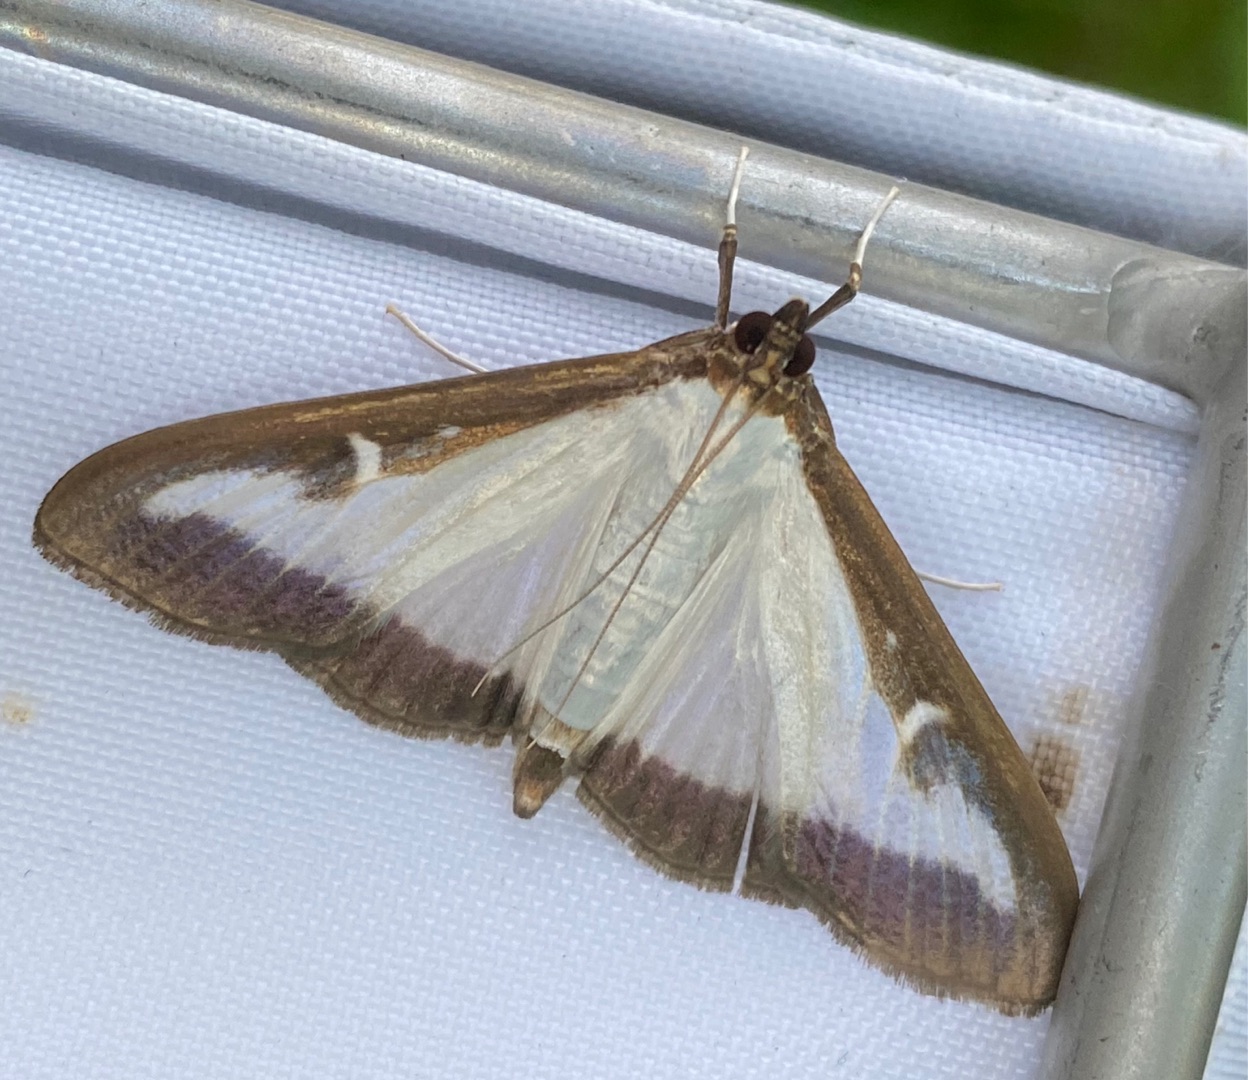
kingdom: Animalia
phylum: Arthropoda
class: Insecta
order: Lepidoptera
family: Crambidae
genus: Cydalima
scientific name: Cydalima perspectalis
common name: Buksbomhalvmøl
